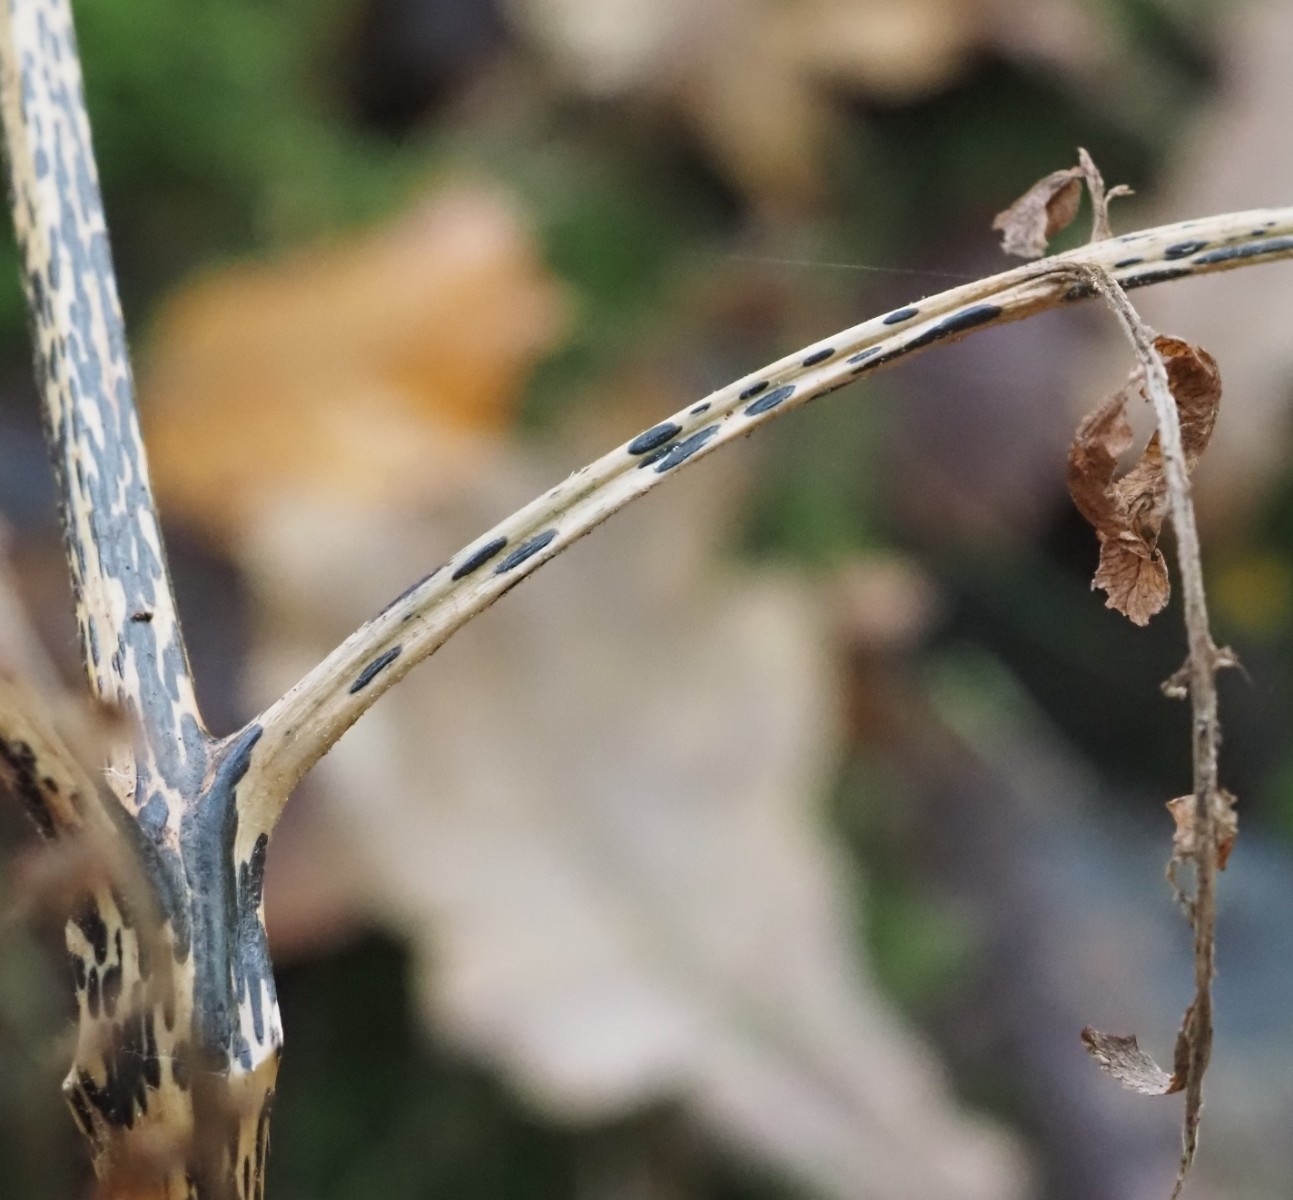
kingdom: Fungi
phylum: Ascomycota
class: Dothideomycetes
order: Pleosporales
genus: Rhopographus
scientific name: Rhopographus filicinus
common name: Bracken map
